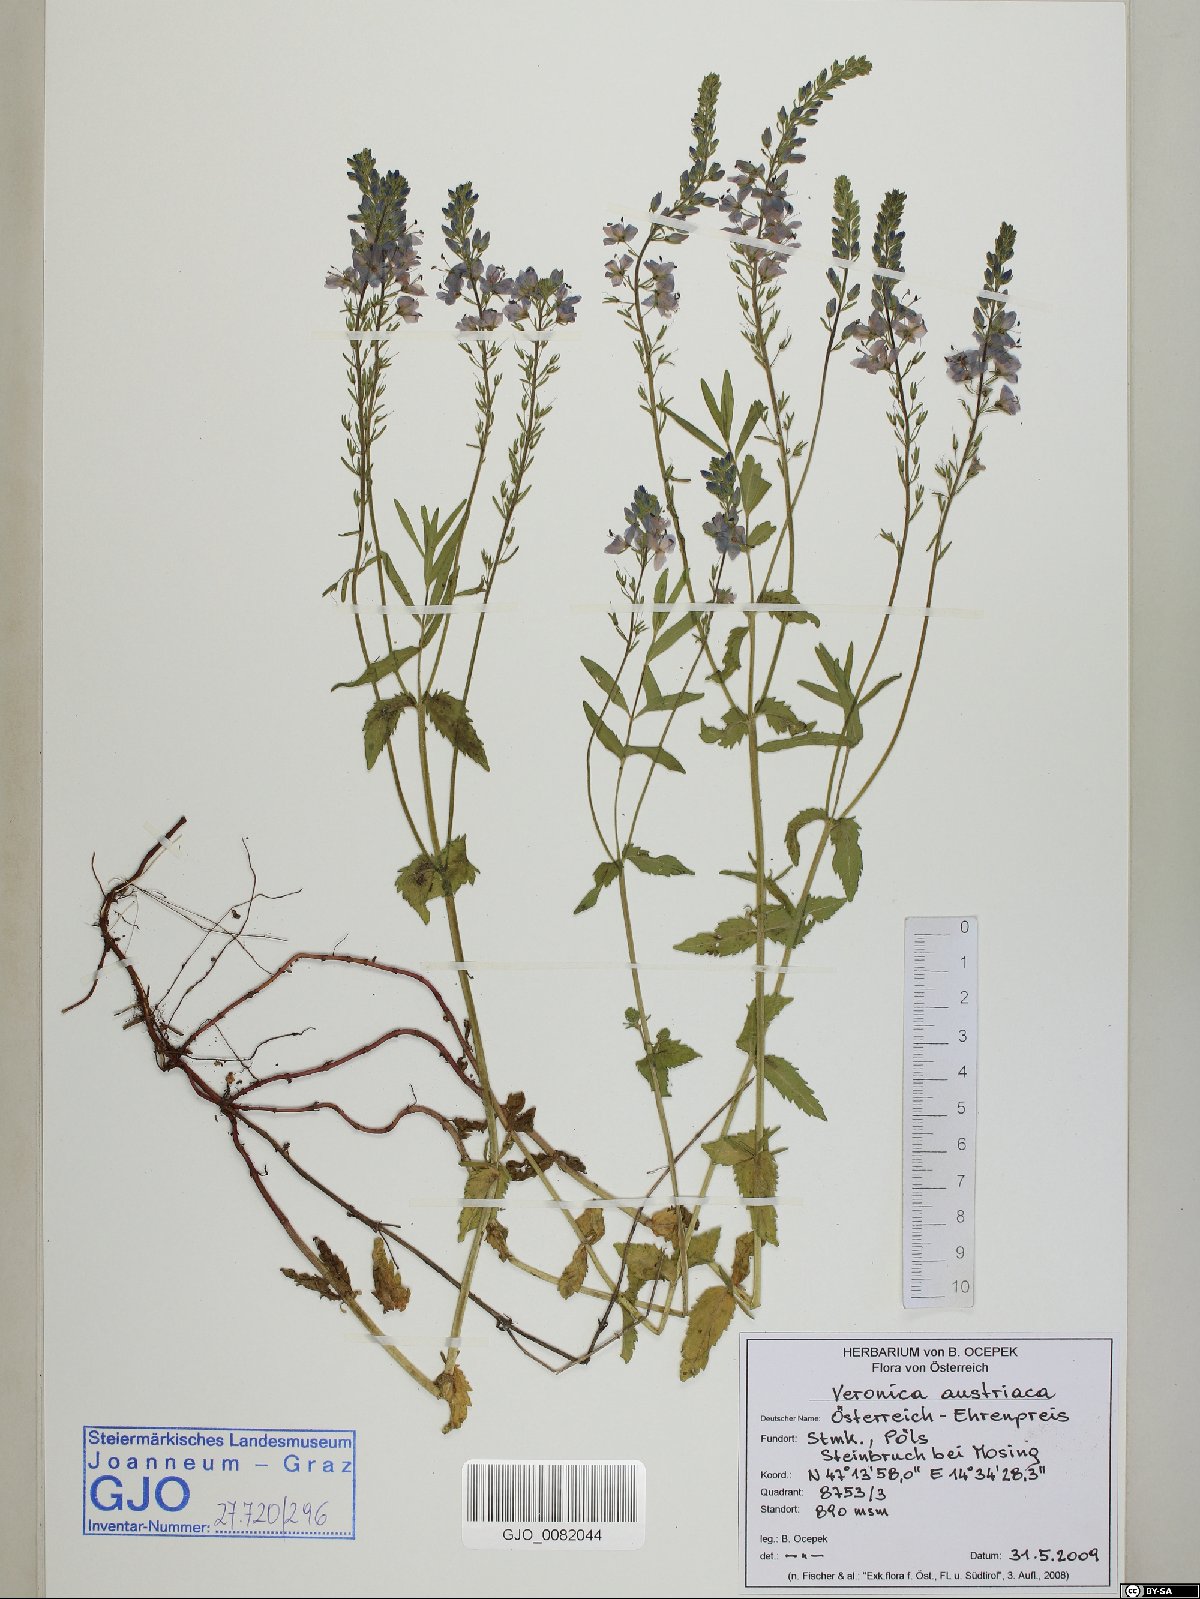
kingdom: Plantae
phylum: Tracheophyta
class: Magnoliopsida
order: Lamiales
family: Plantaginaceae
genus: Veronica
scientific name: Veronica austriaca
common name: Large speedwell
